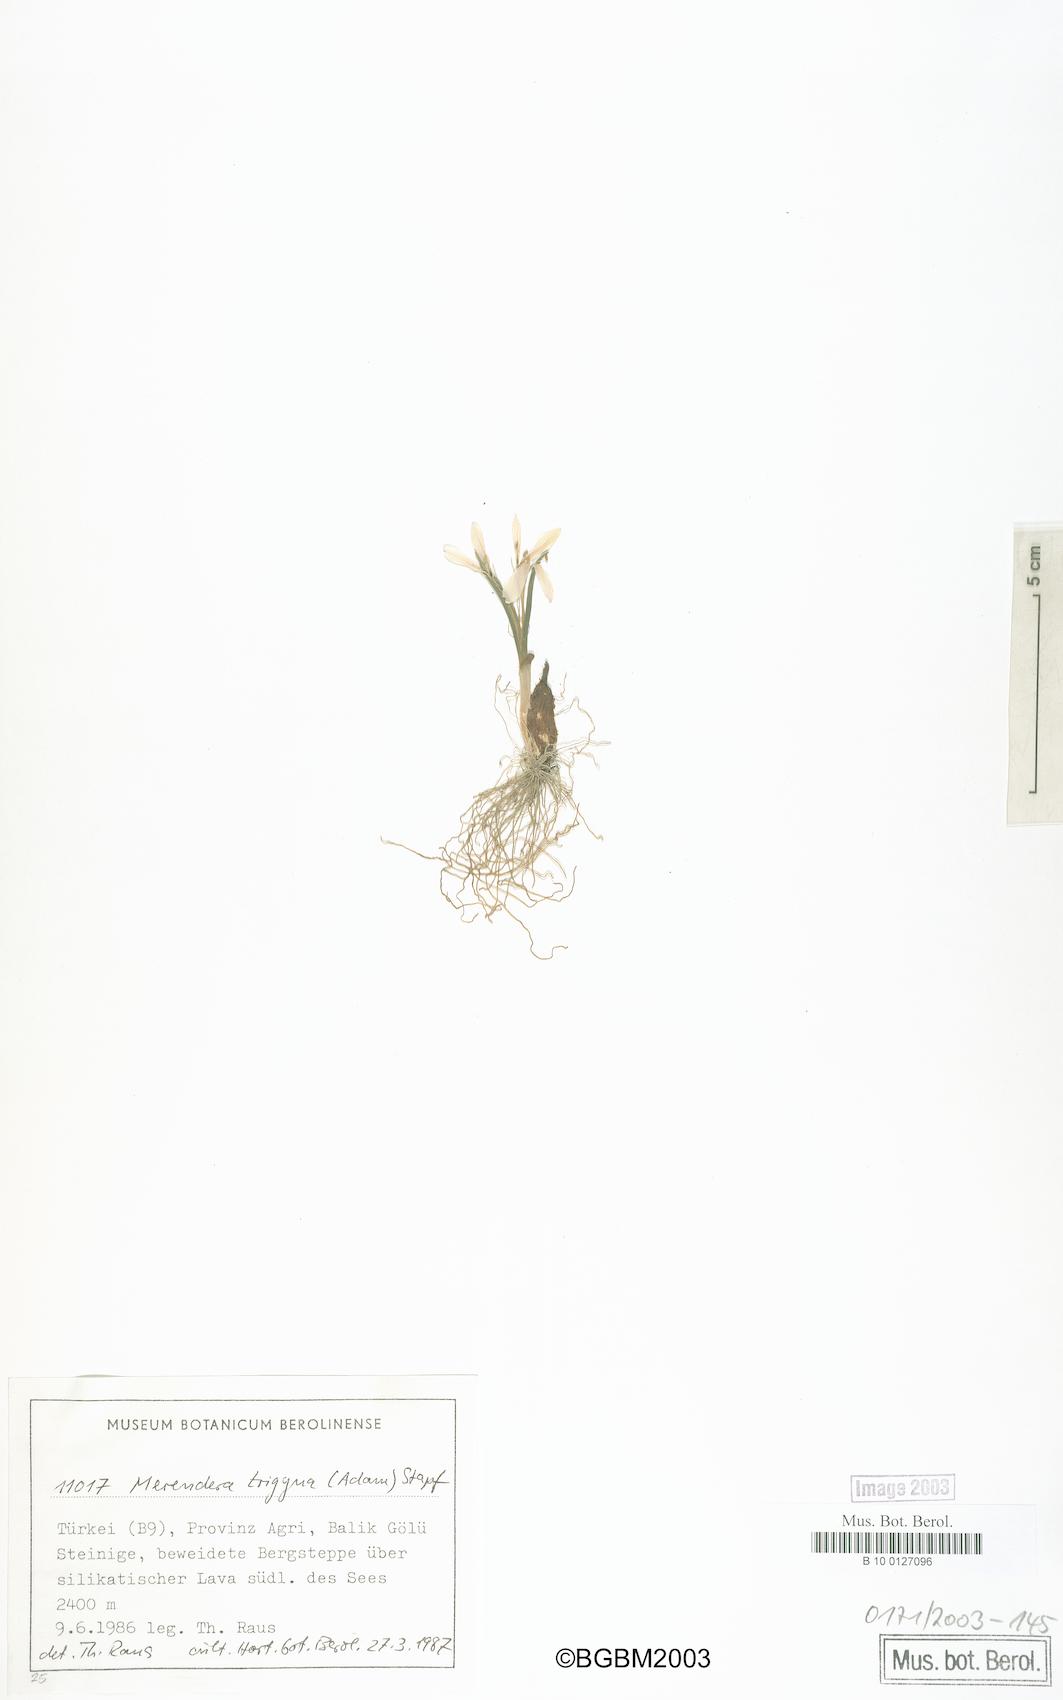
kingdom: Plantae
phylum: Tracheophyta
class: Liliopsida
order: Liliales
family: Colchicaceae
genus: Colchicum
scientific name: Colchicum
